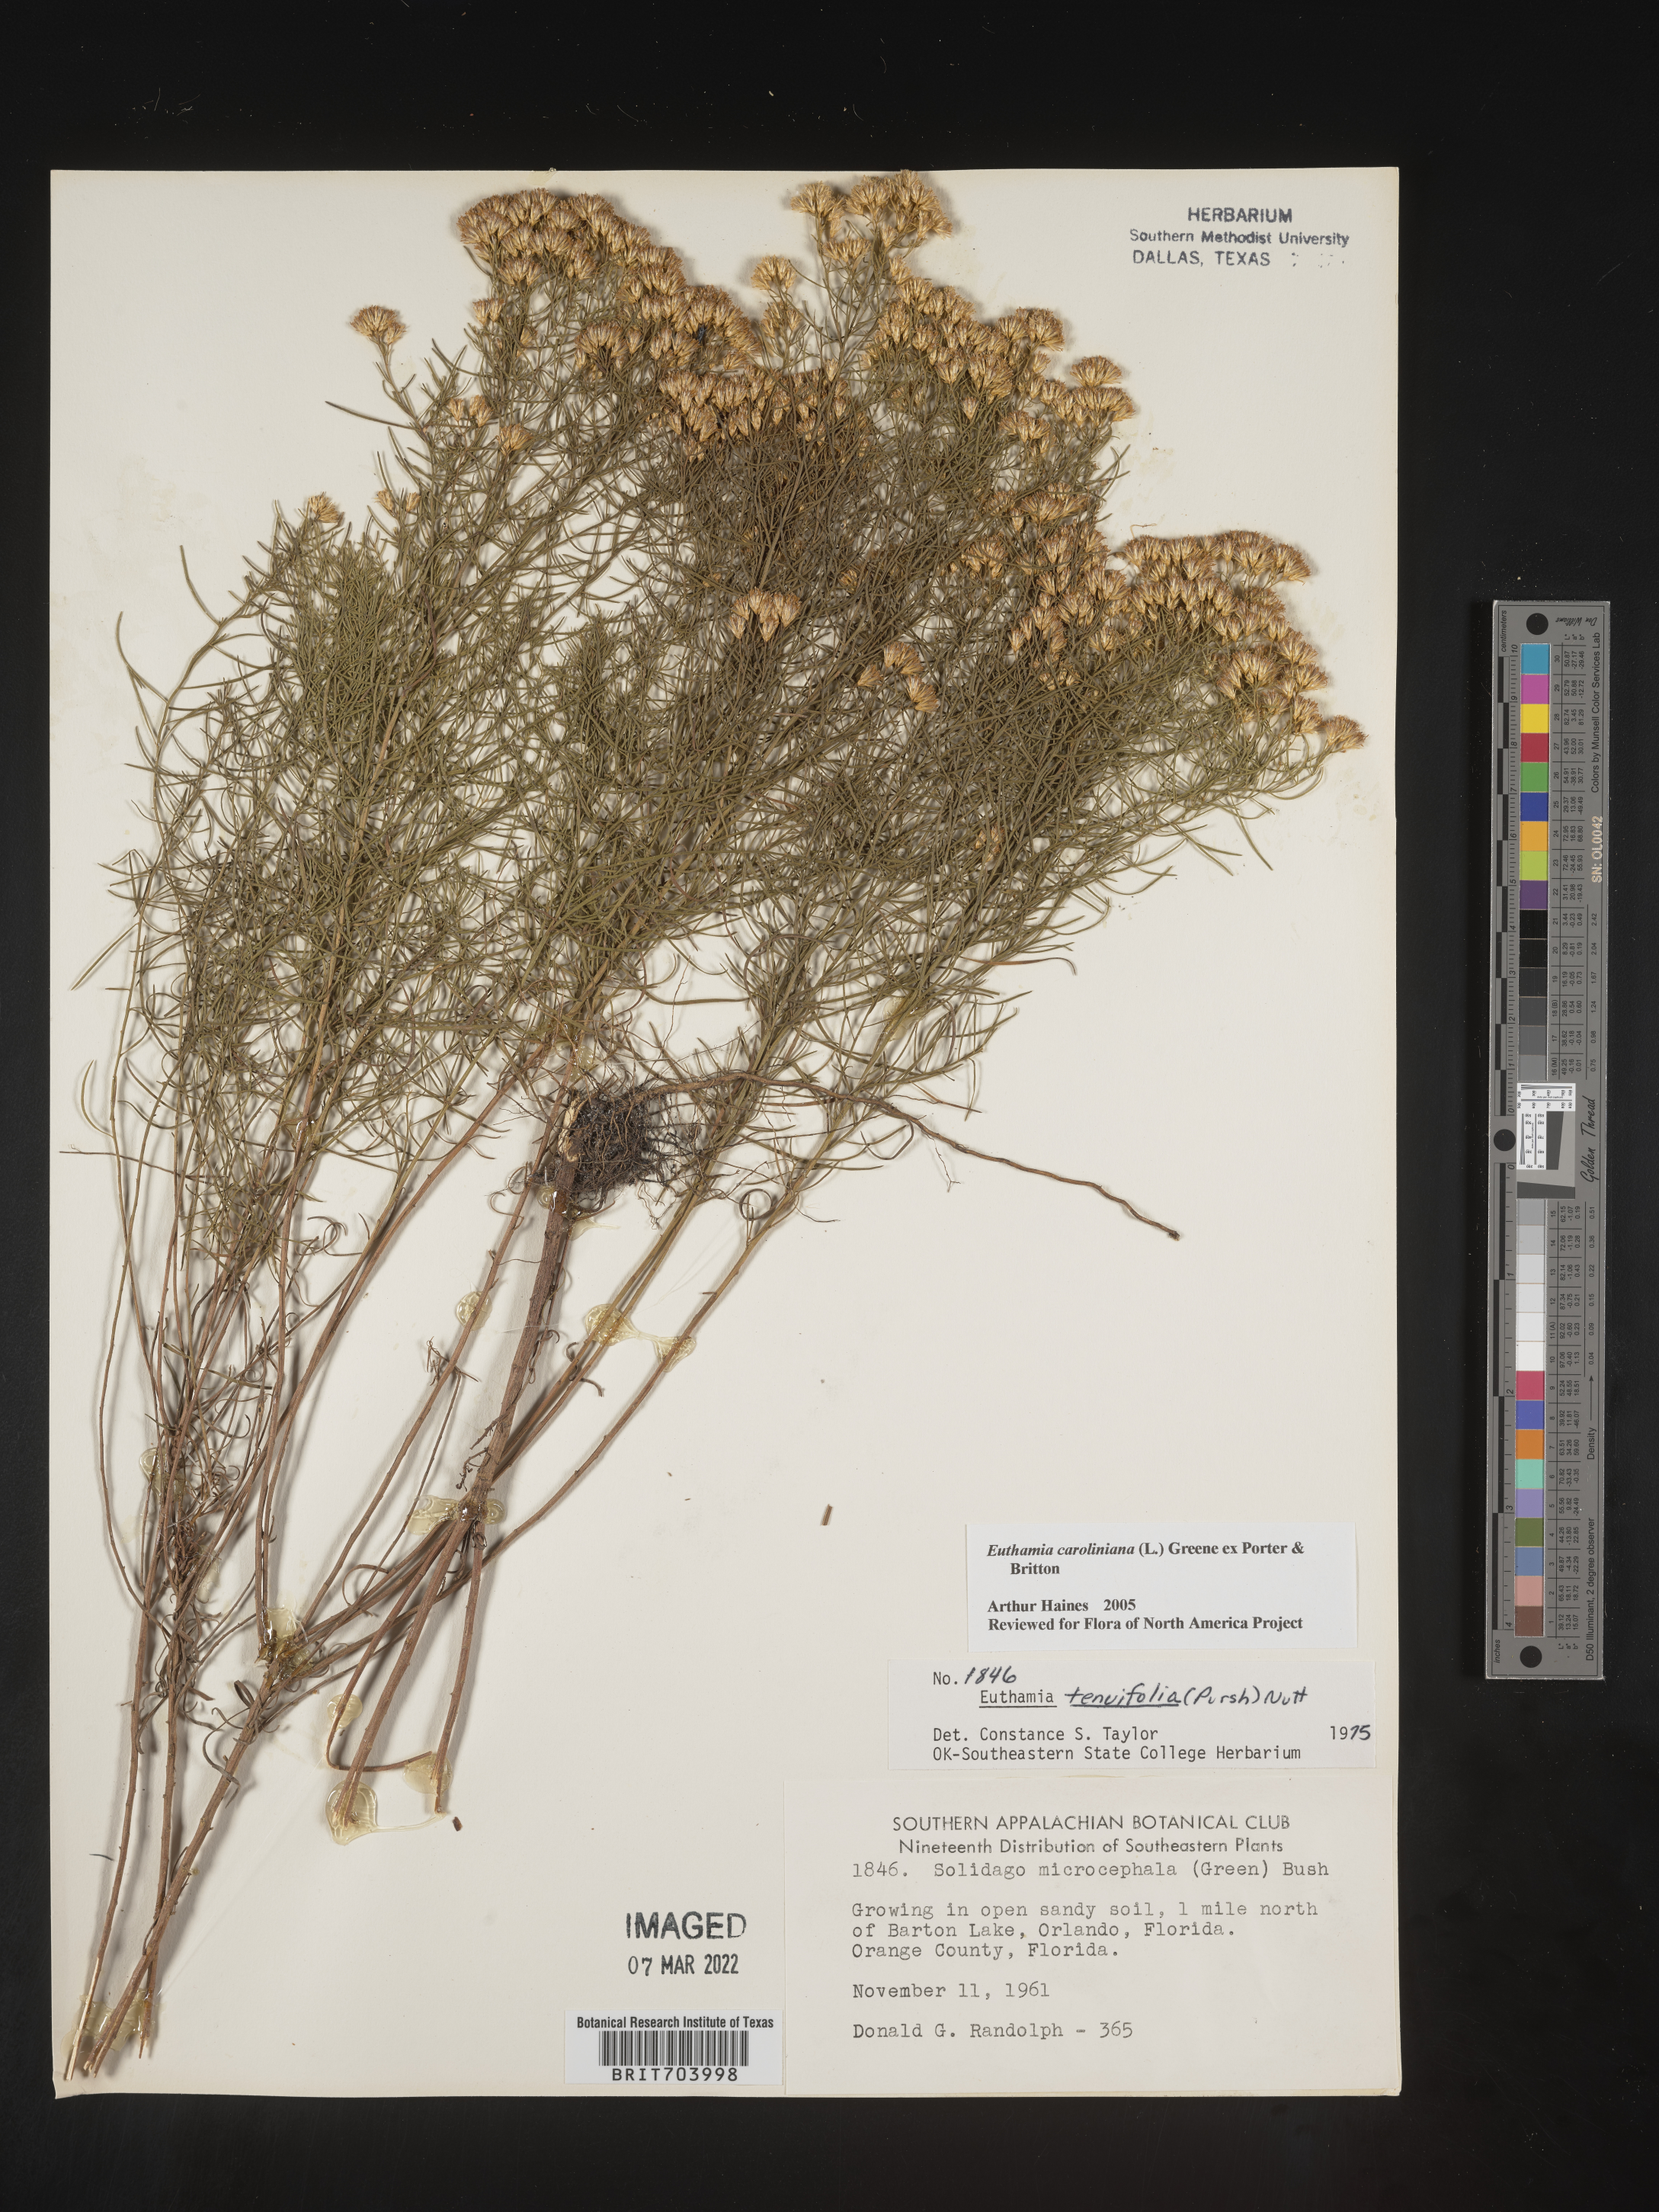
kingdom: Plantae
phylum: Tracheophyta
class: Magnoliopsida
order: Asterales
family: Asteraceae
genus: Euthamia
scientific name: Euthamia caroliniana
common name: Coastal plain goldentop
